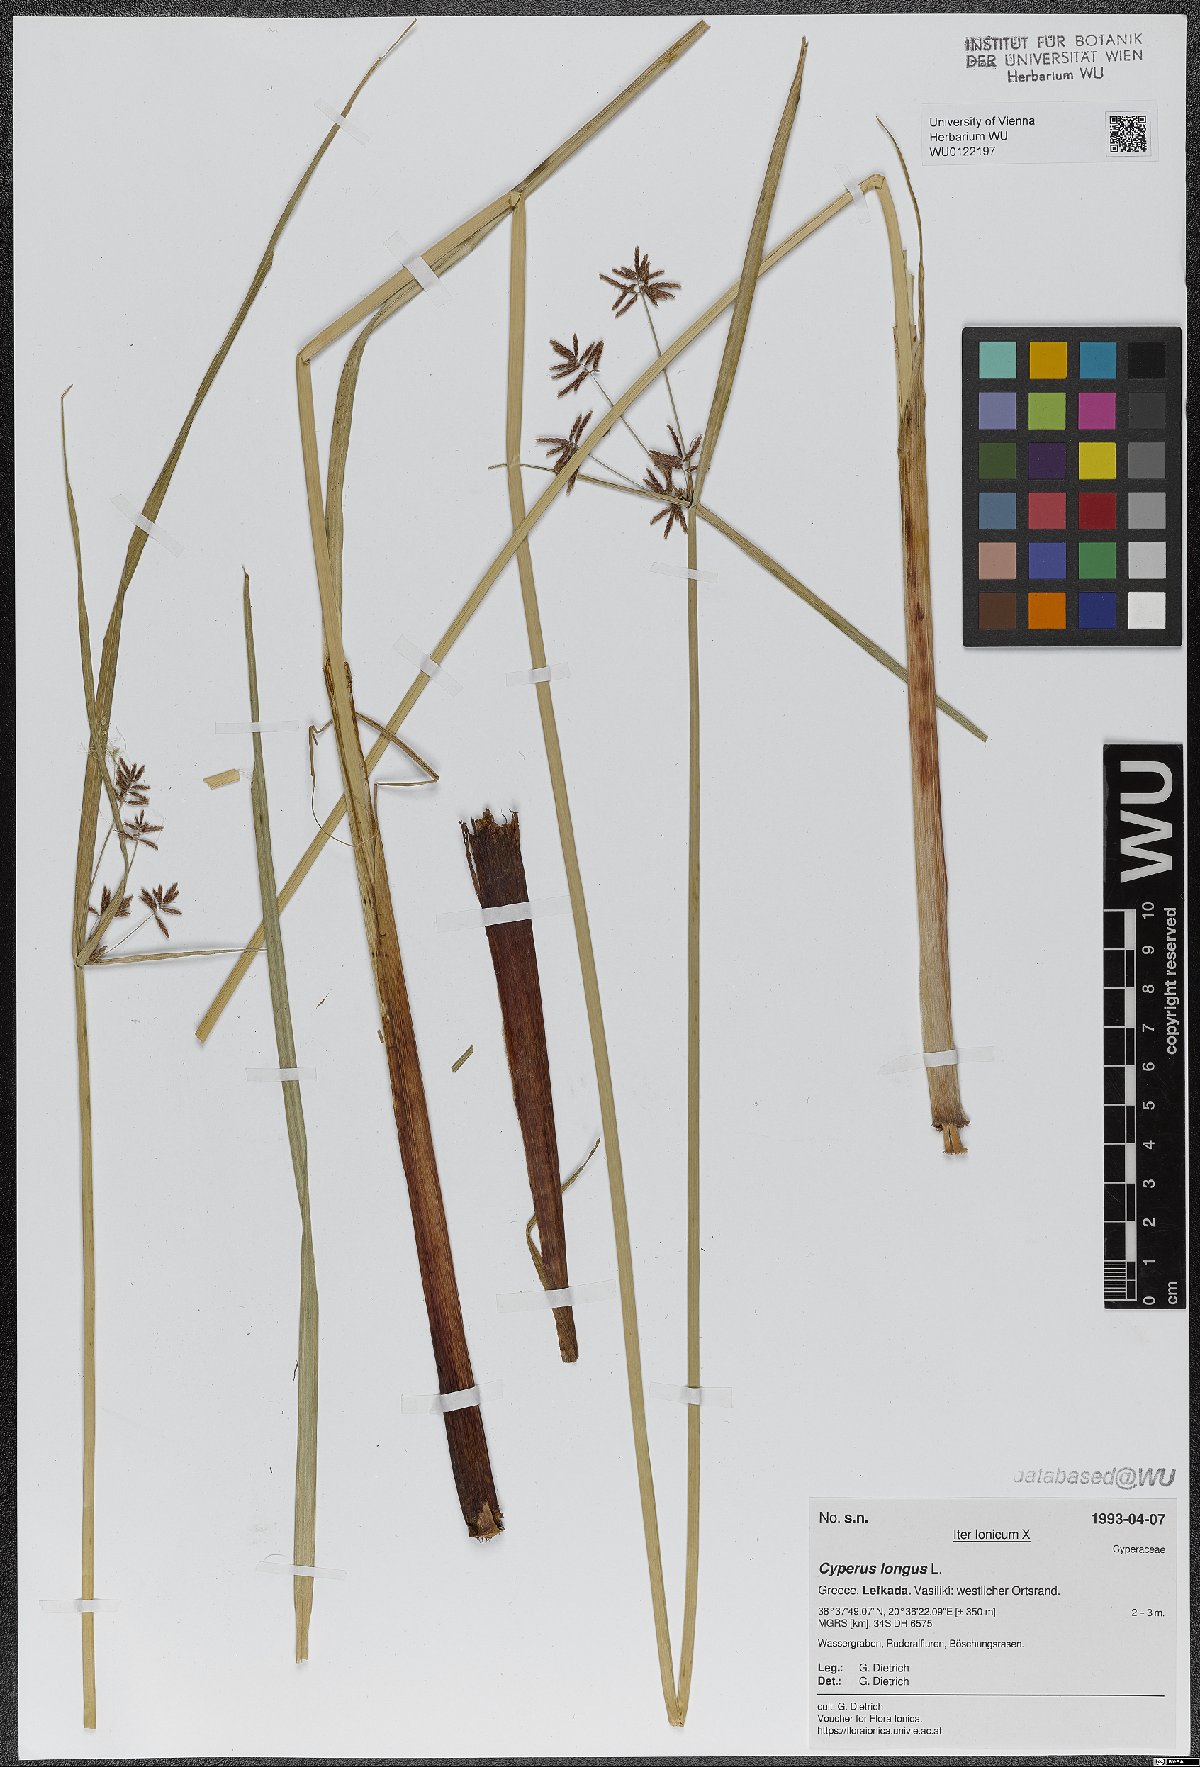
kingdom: Plantae
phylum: Tracheophyta
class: Liliopsida
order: Poales
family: Cyperaceae
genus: Cyperus
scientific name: Cyperus longus
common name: Galingale
